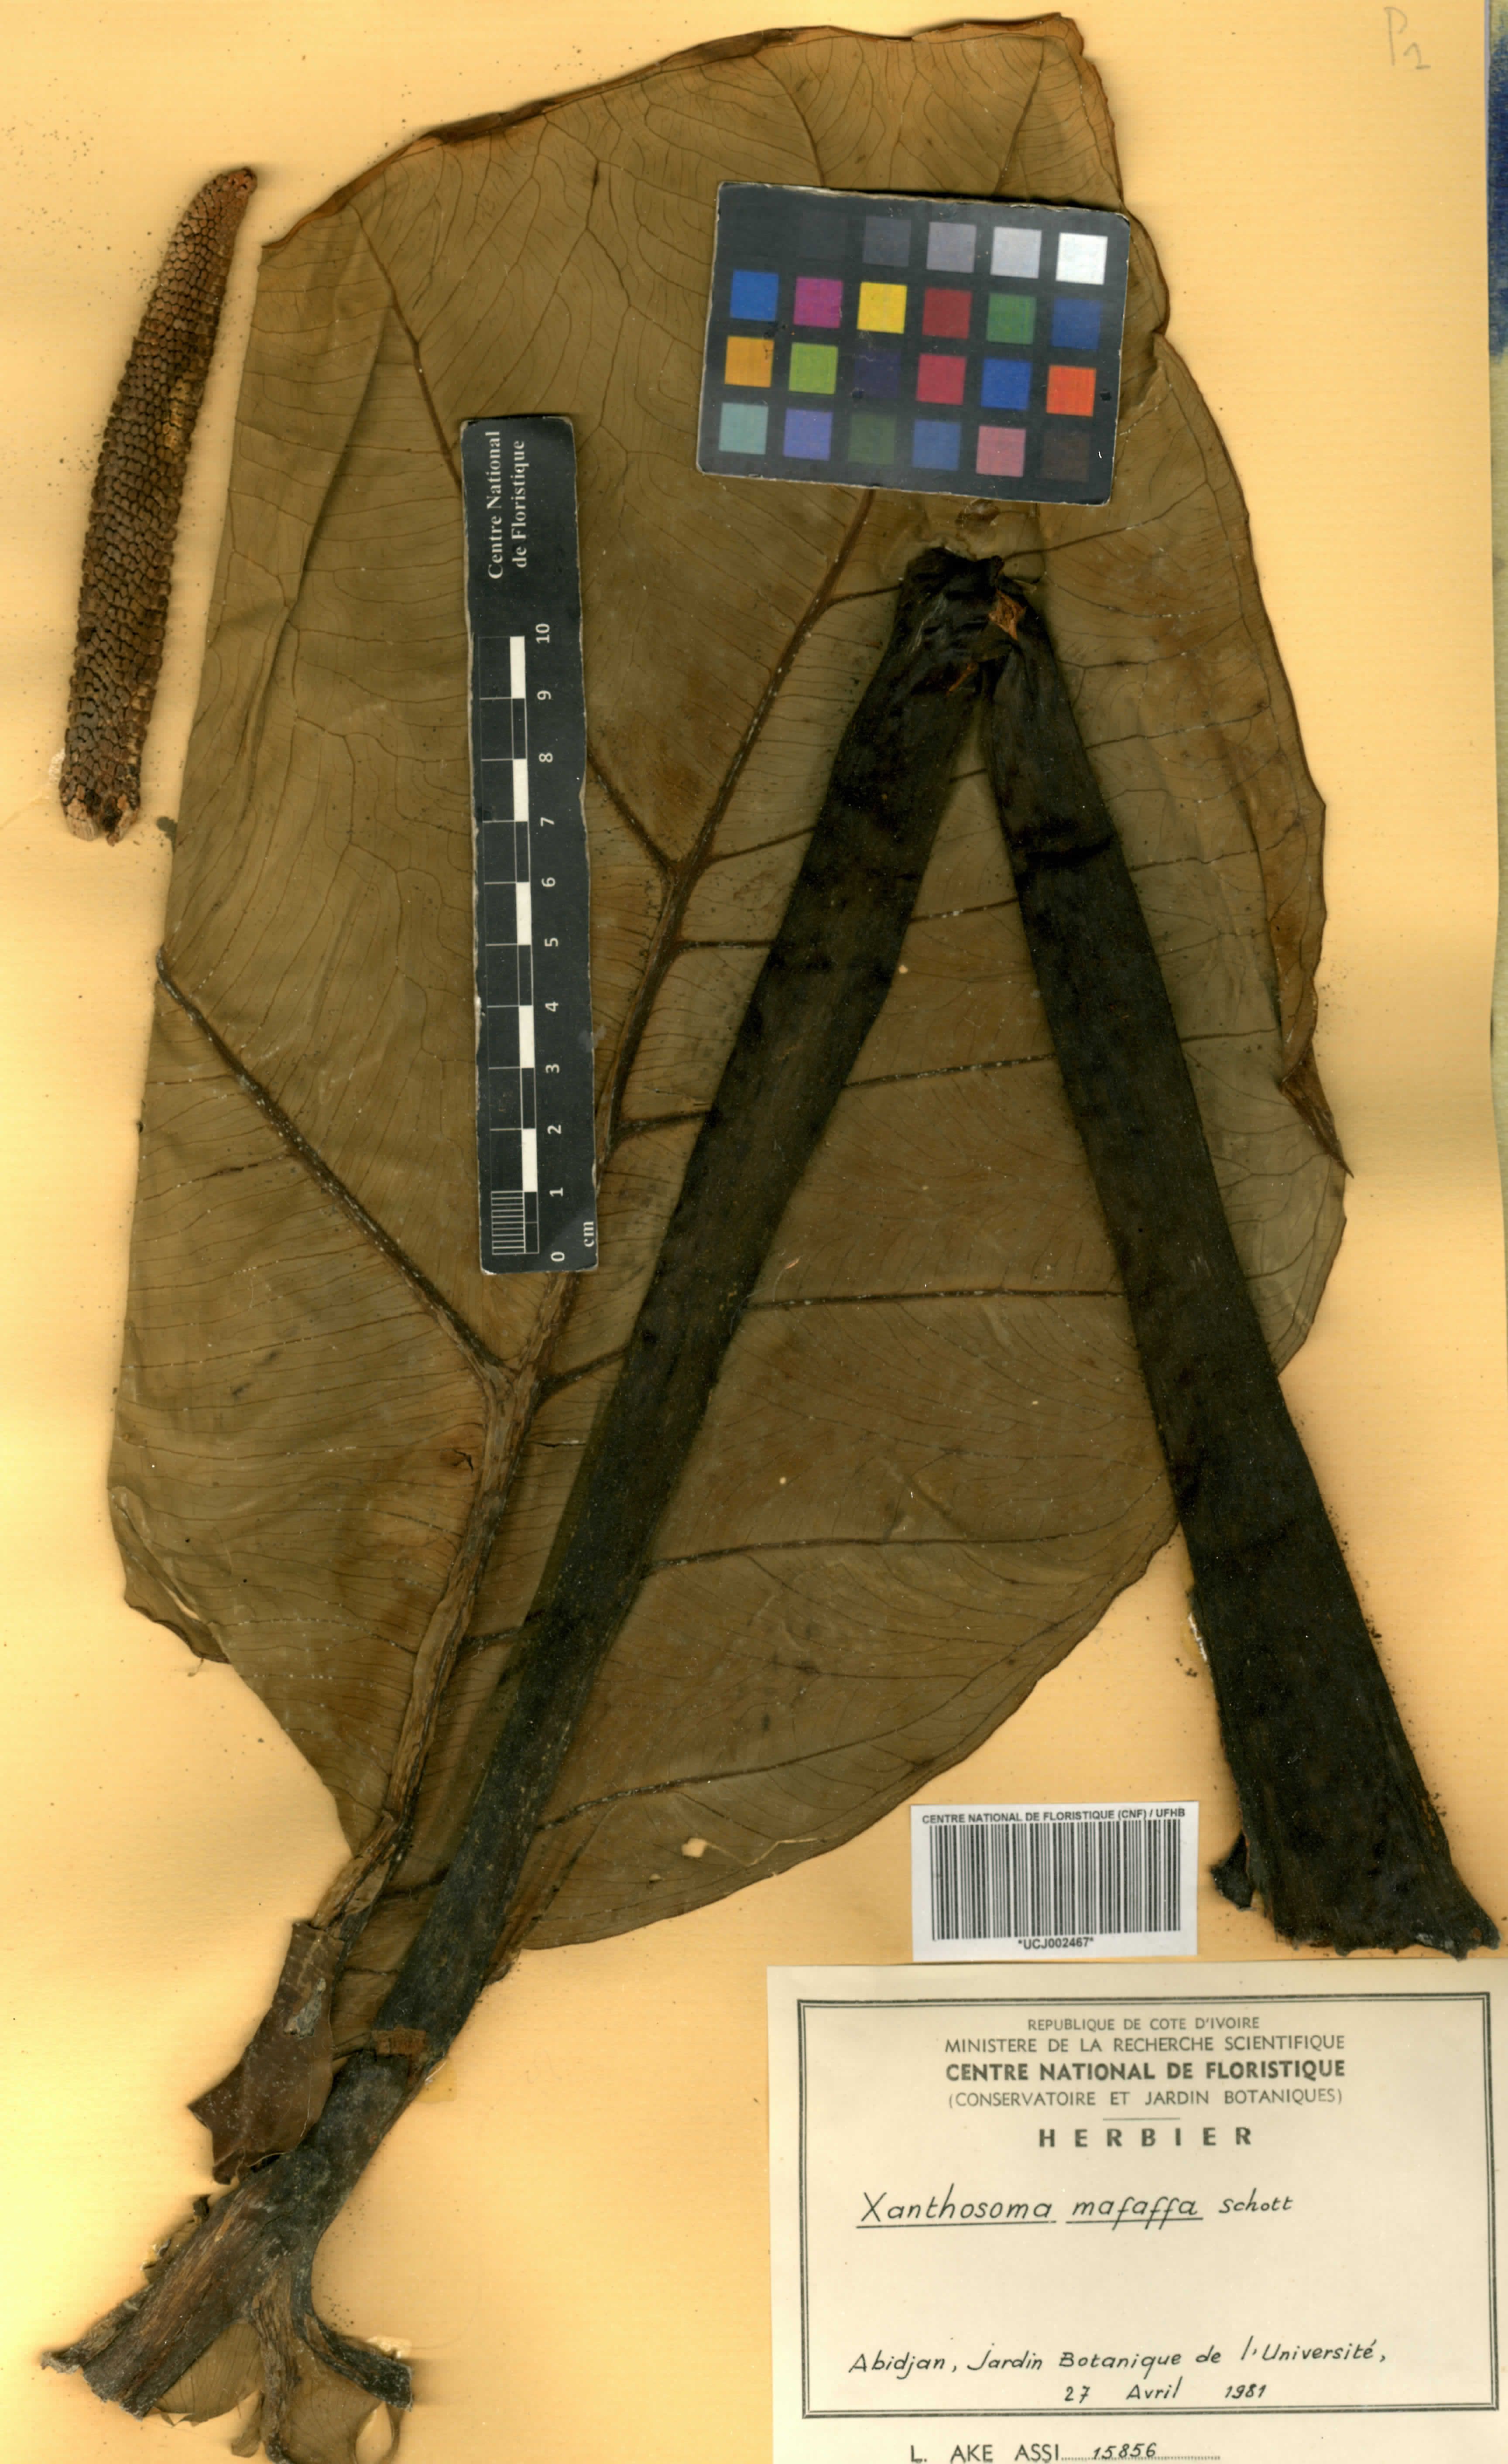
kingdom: Plantae
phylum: Tracheophyta
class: Liliopsida
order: Alismatales
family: Araceae
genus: Xanthosoma
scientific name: Xanthosoma sagittifolium
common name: Arrowleaf elephant's ear
